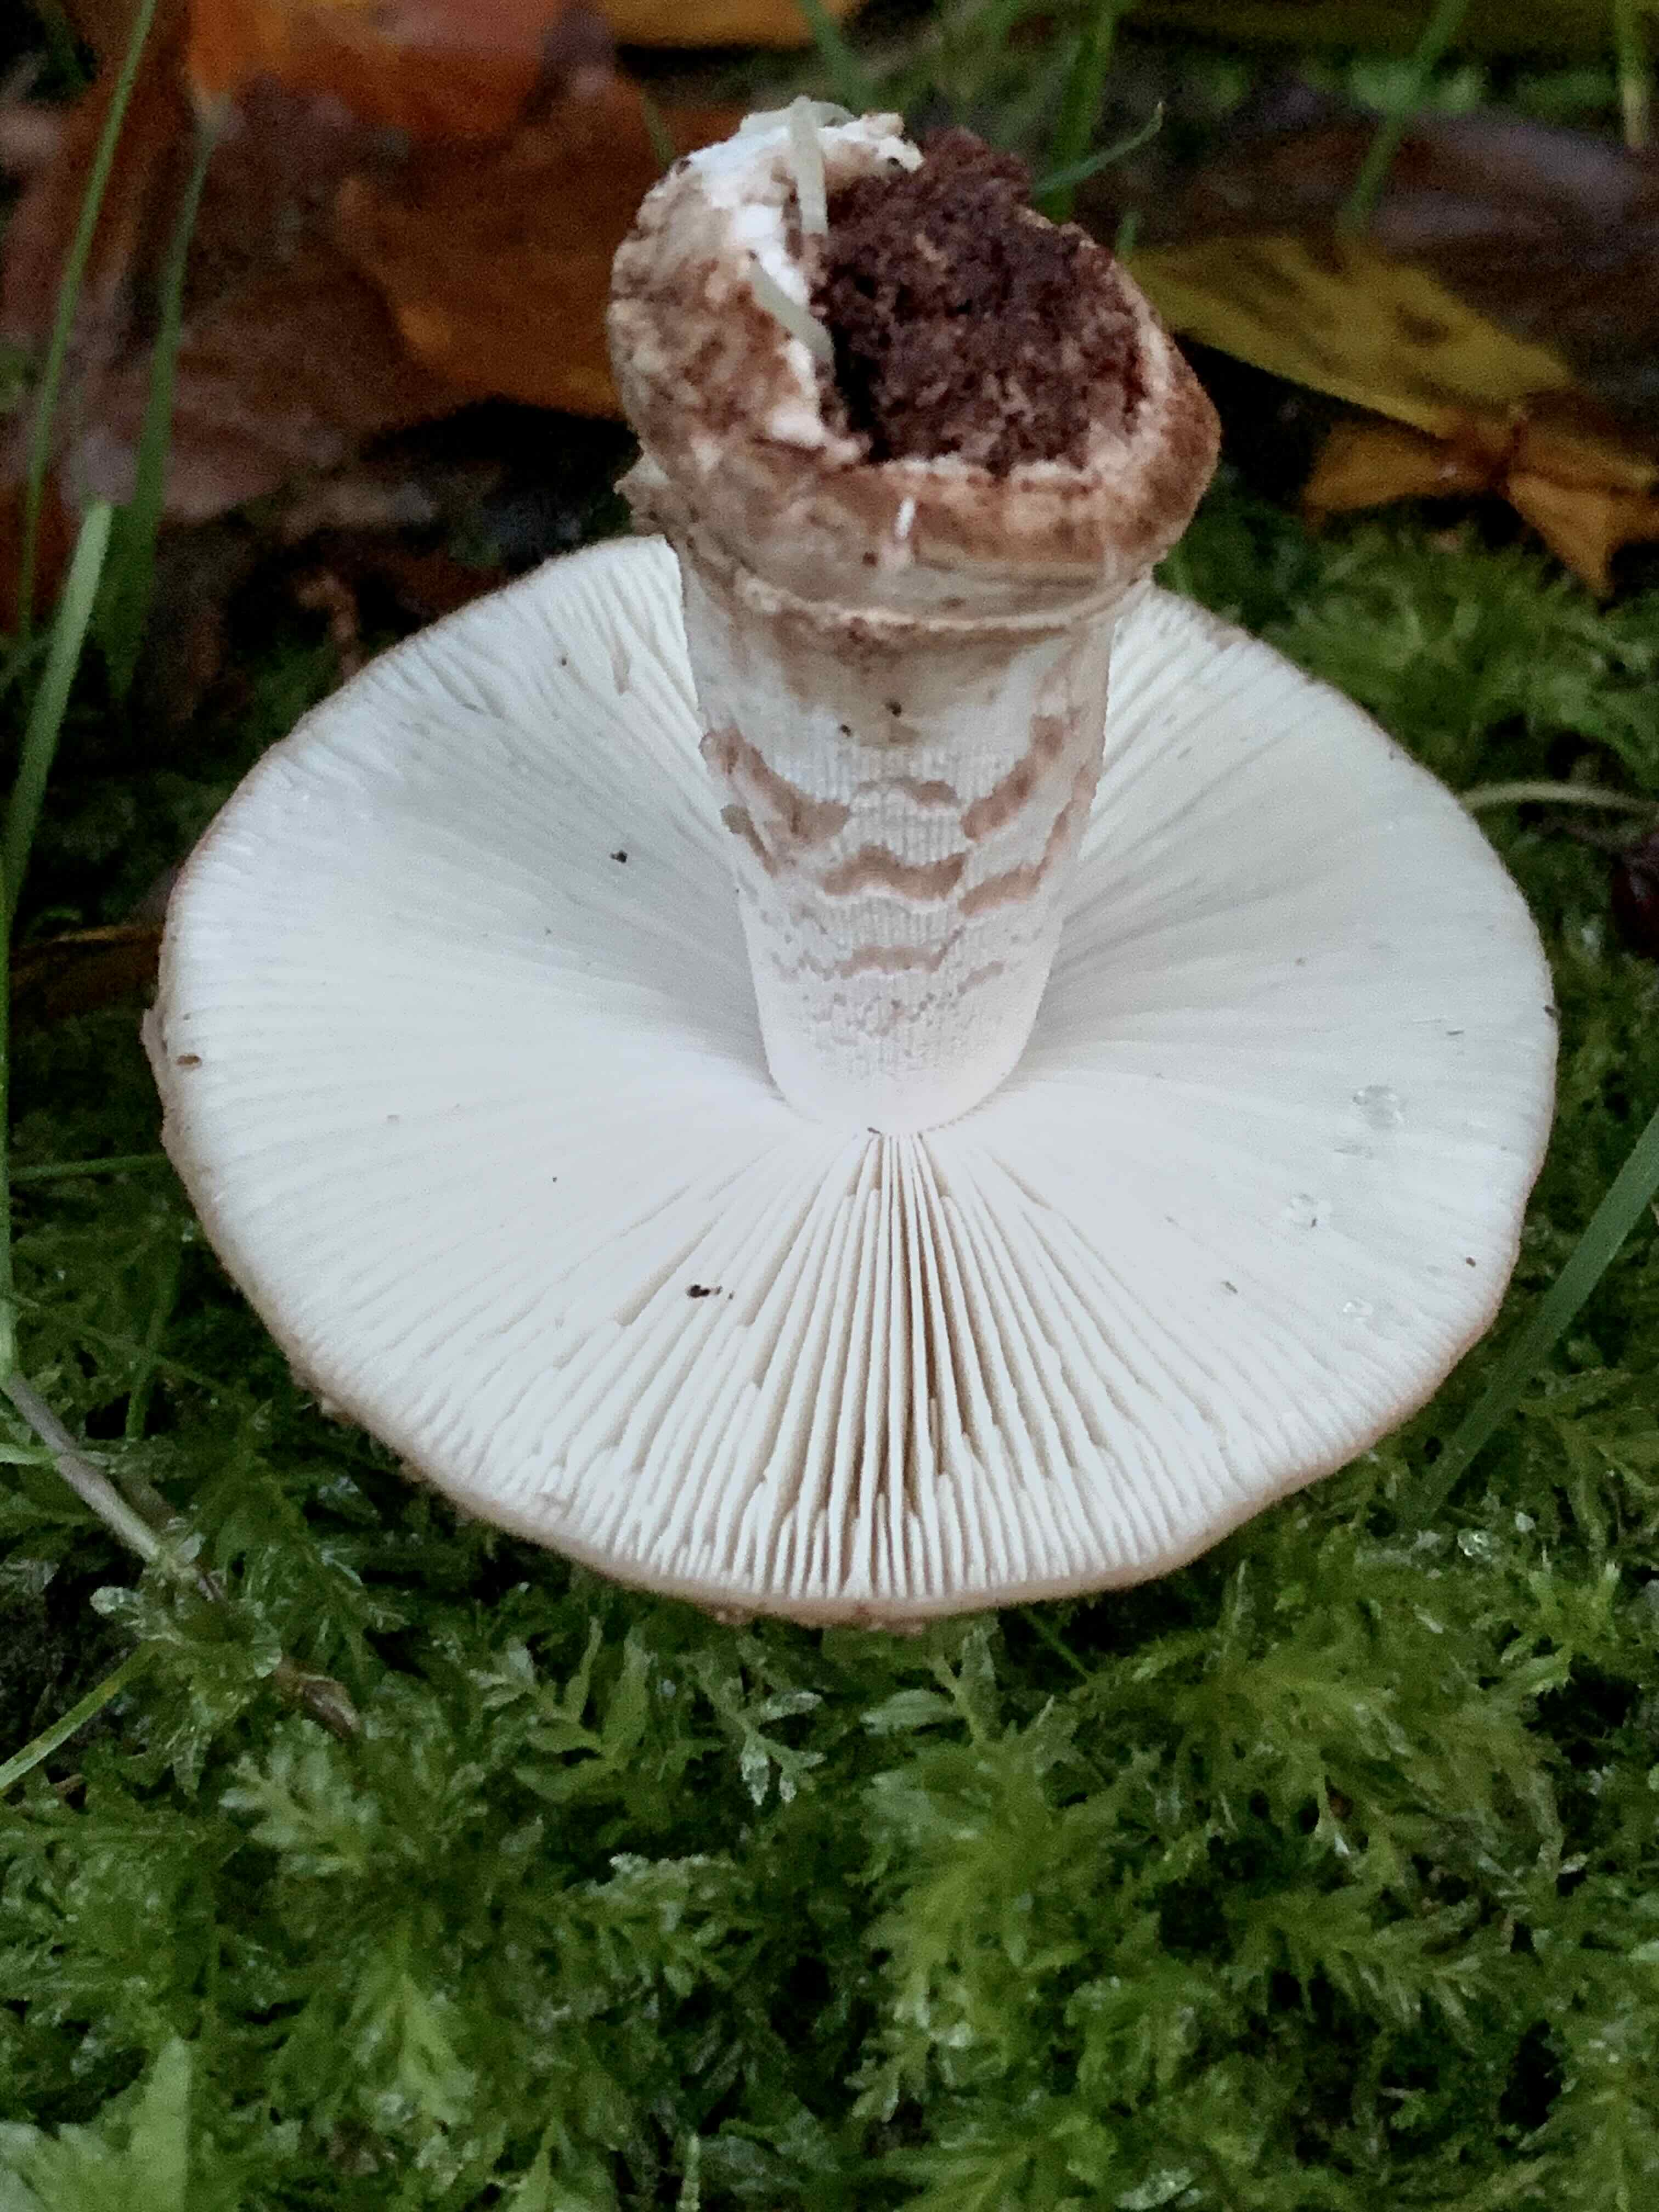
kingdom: Fungi
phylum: Basidiomycota
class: Agaricomycetes
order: Agaricales
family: Amanitaceae
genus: Amanita
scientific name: Amanita rubescens
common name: rødmende fluesvamp
